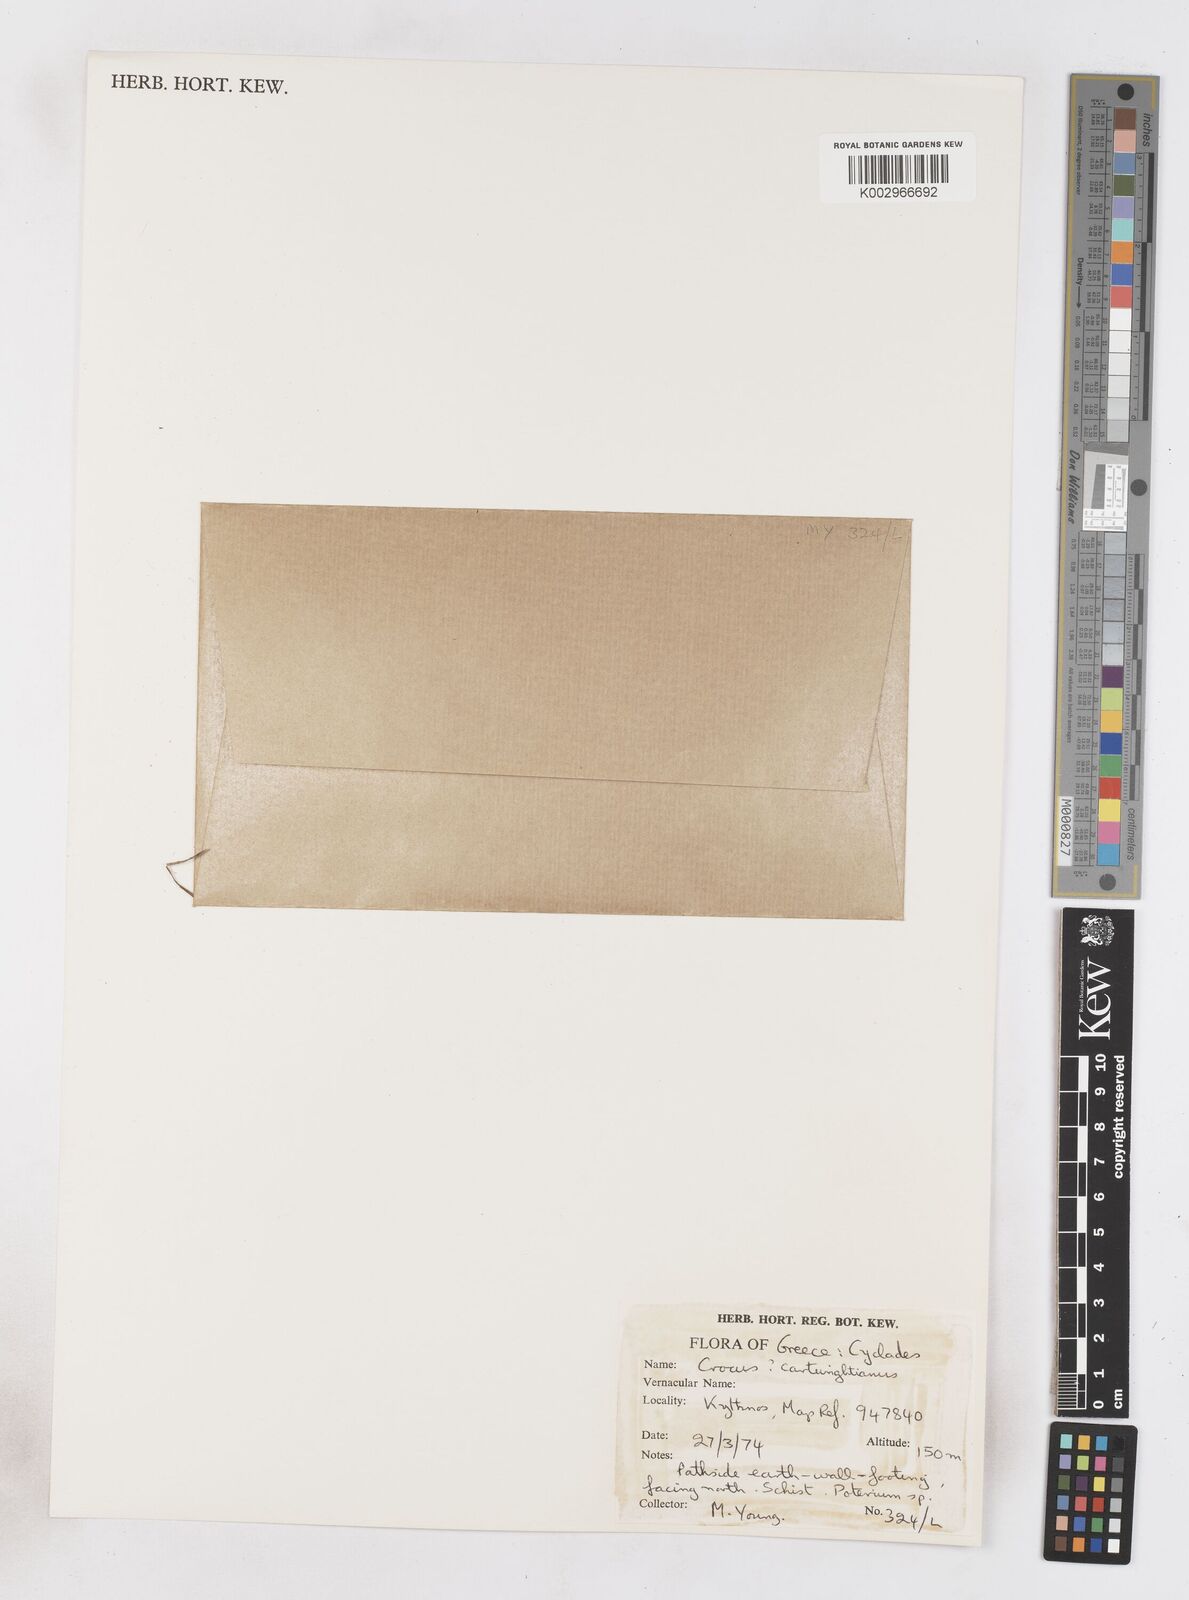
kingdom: Plantae
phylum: Tracheophyta
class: Liliopsida
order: Asparagales
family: Iridaceae
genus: Crocus
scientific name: Crocus cartwrightianus
